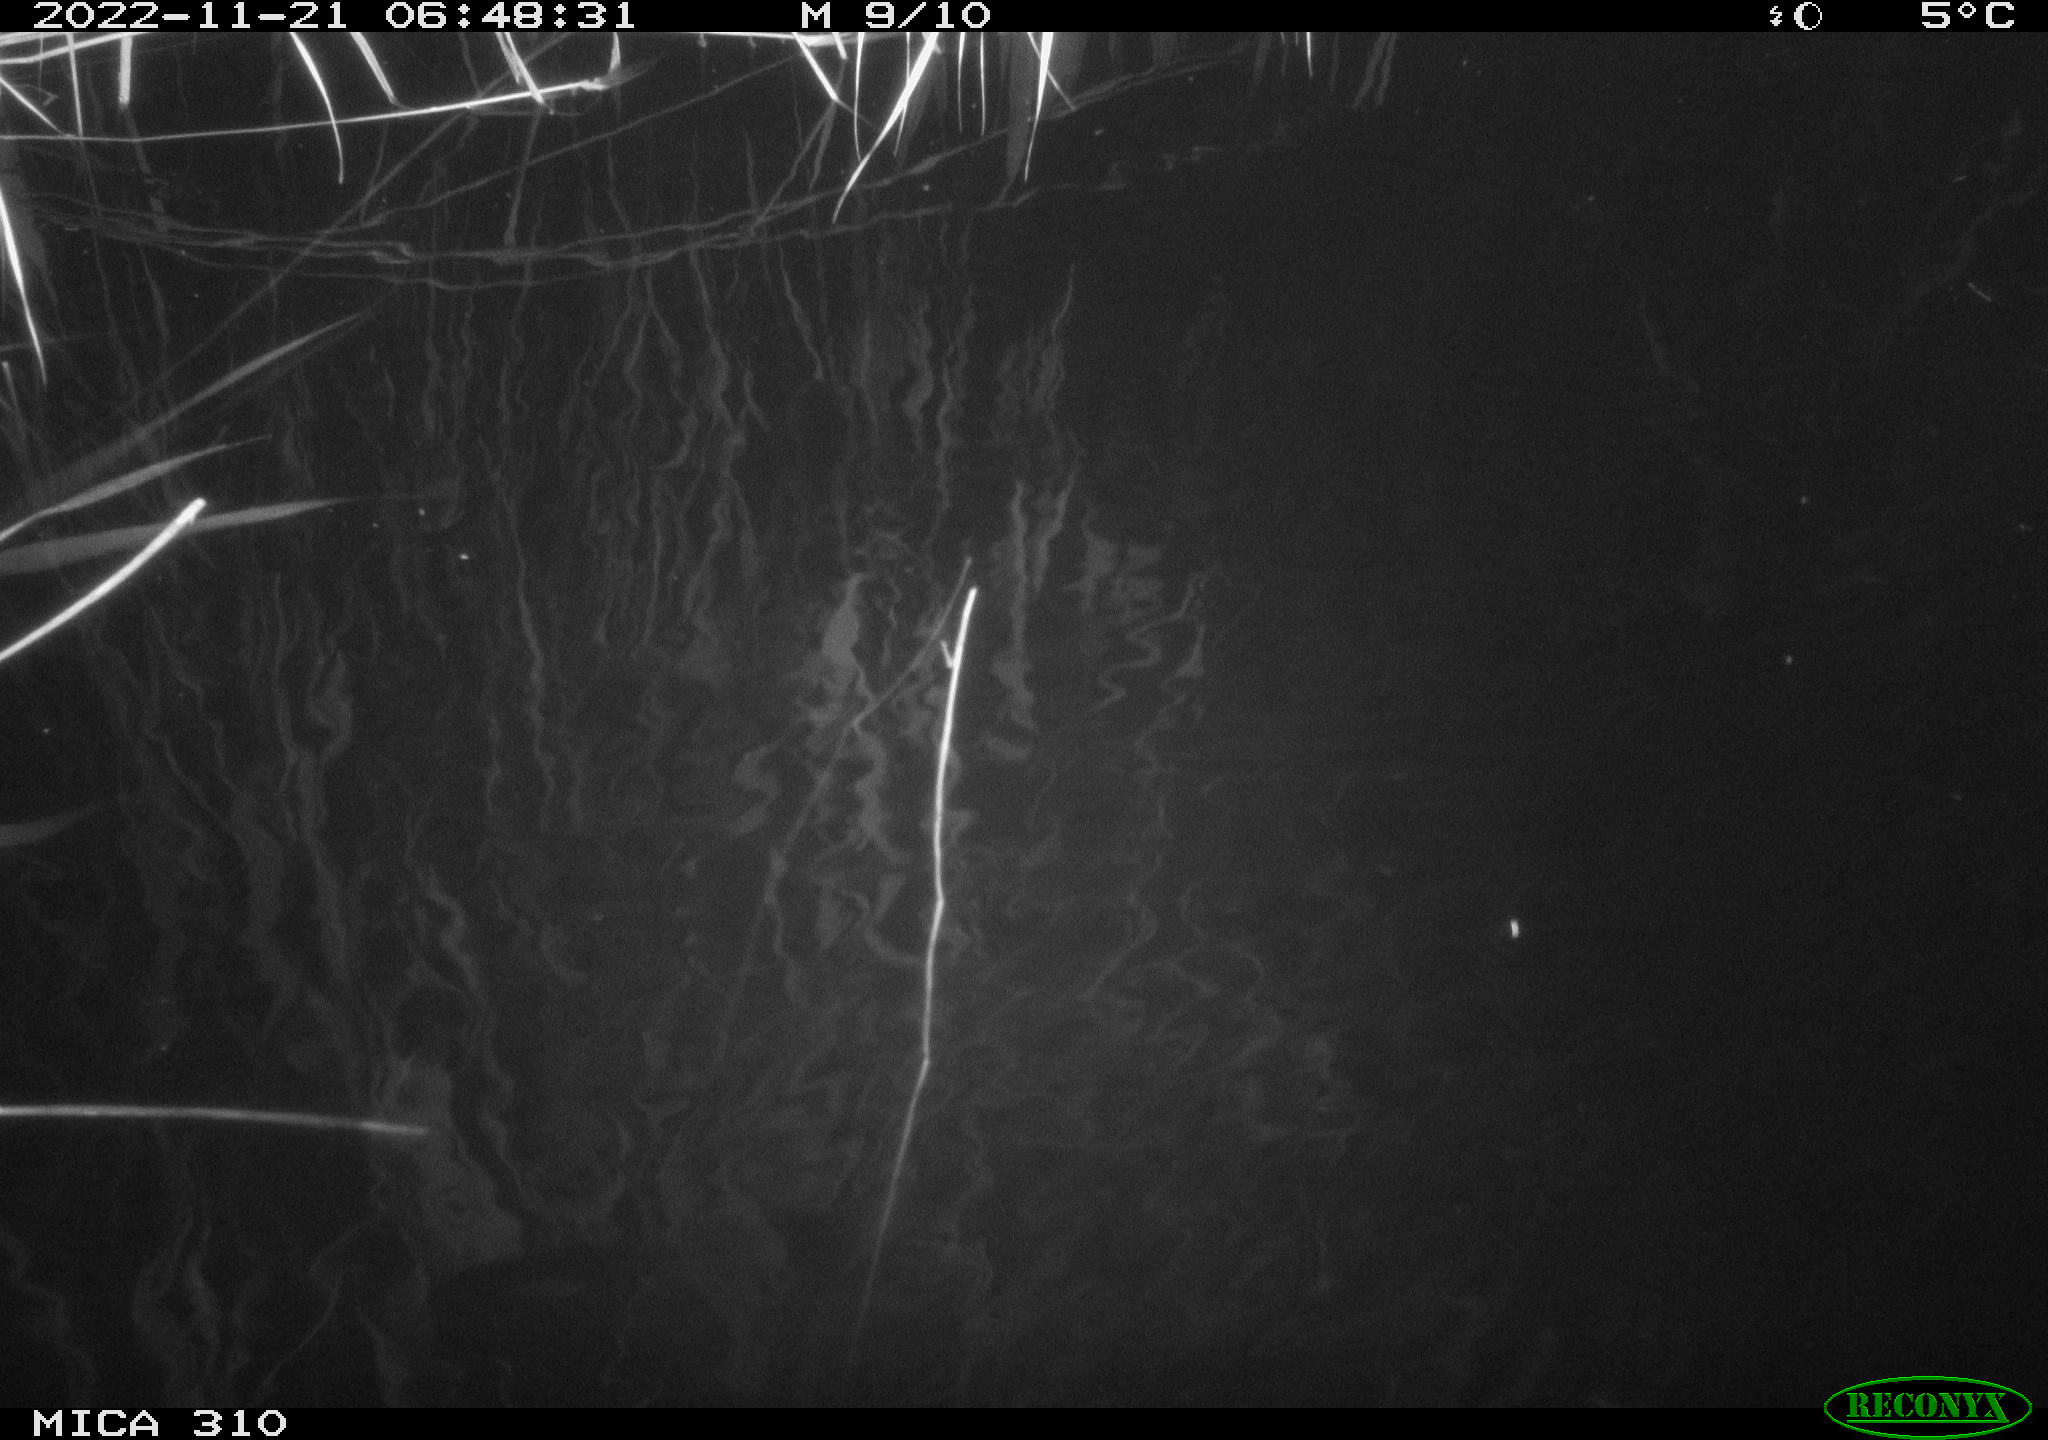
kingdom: Animalia
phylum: Chordata
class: Mammalia
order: Rodentia
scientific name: Rodentia
